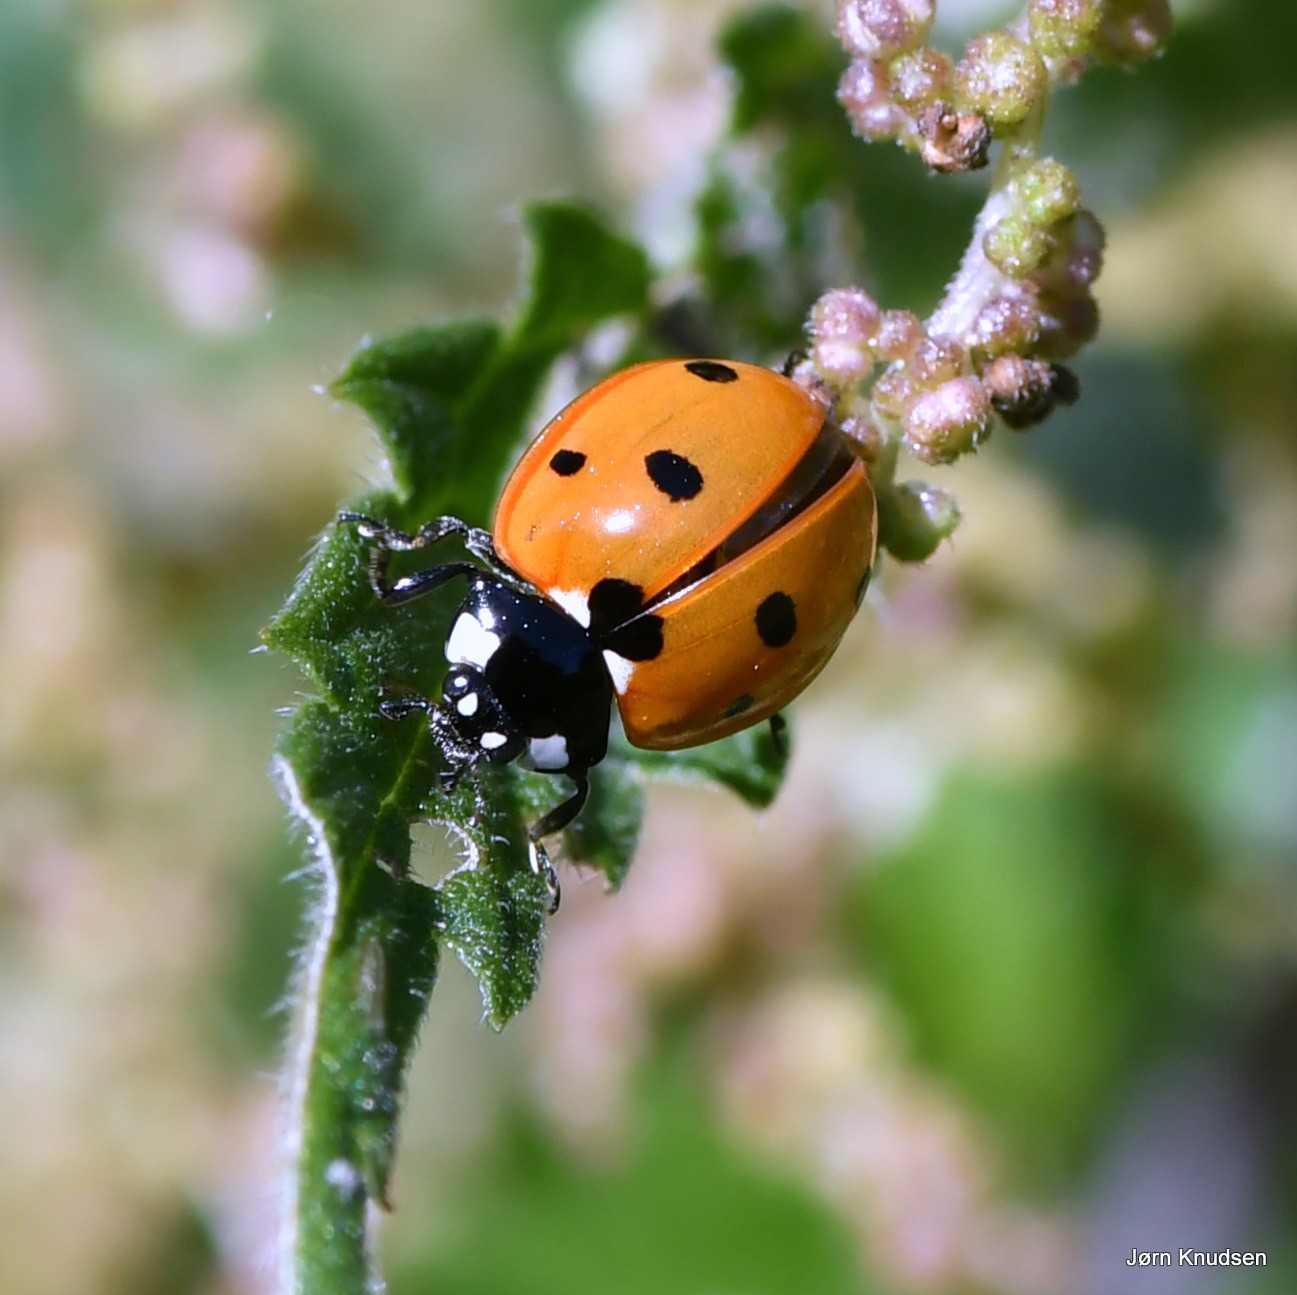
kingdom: Animalia
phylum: Arthropoda
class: Insecta
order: Coleoptera
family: Coccinellidae
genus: Coccinella
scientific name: Coccinella septempunctata
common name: Syvplettet mariehøne
